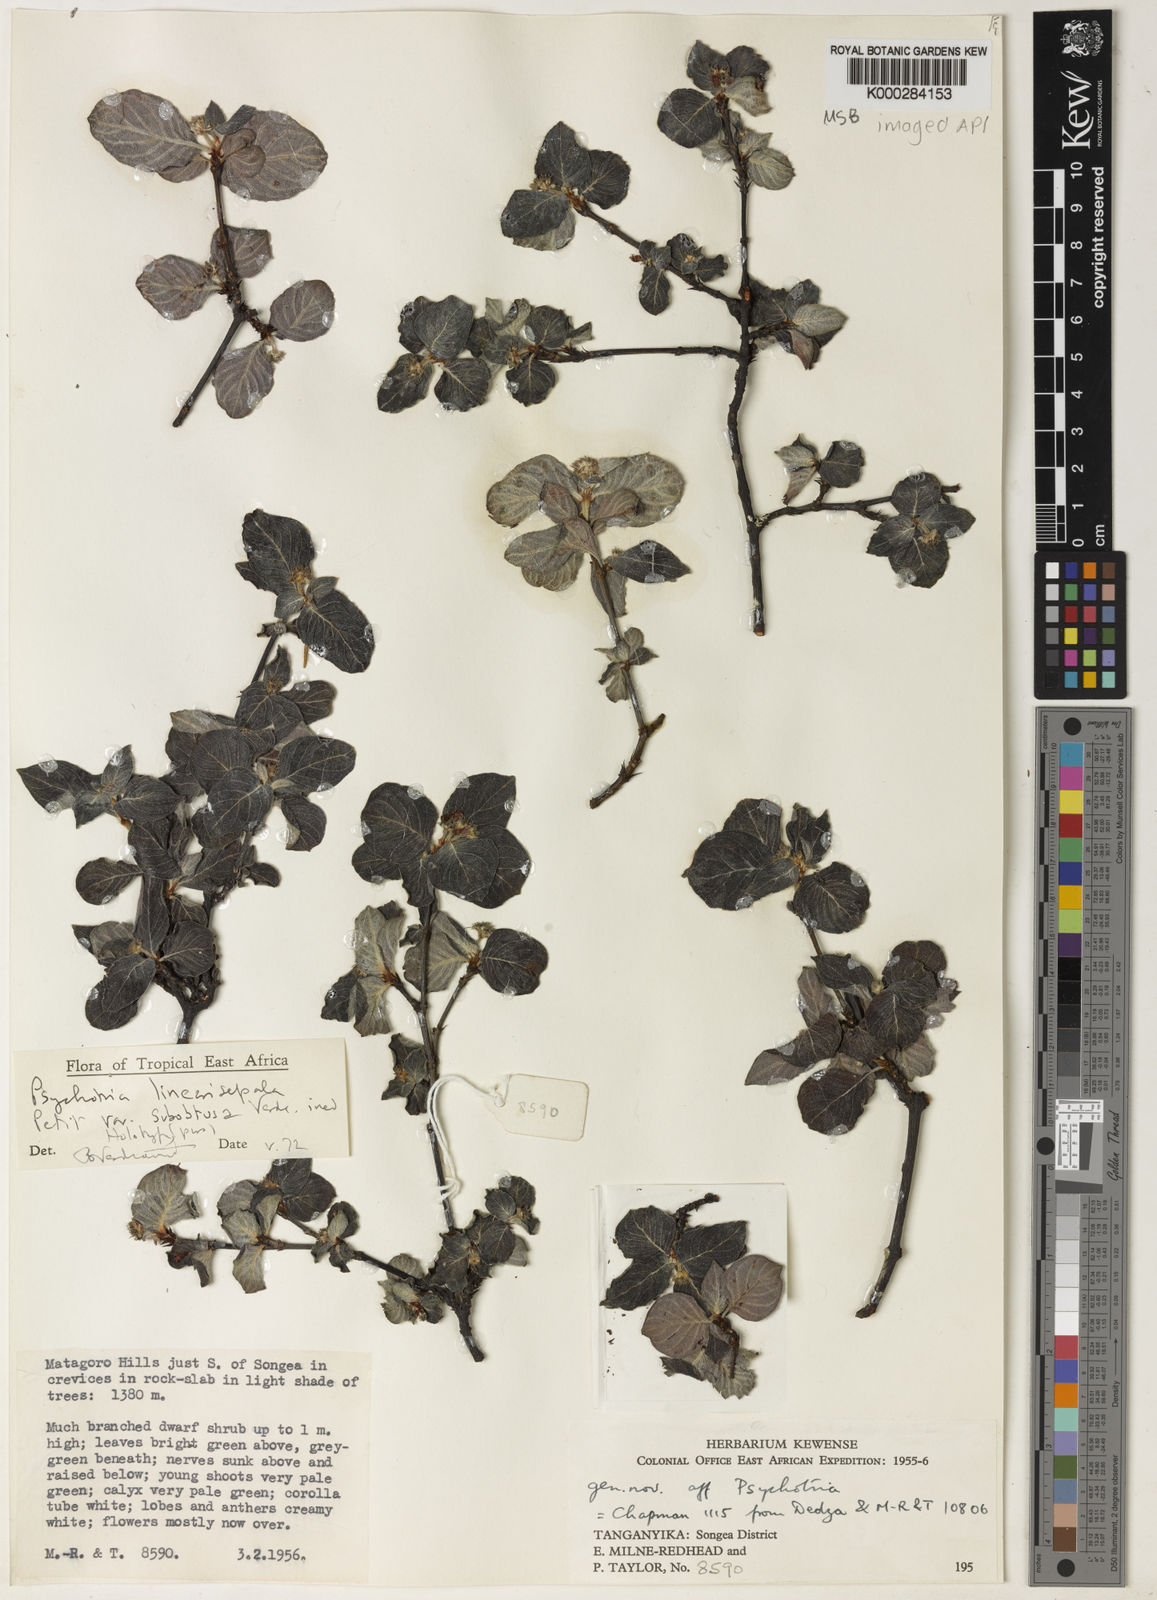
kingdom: Plantae
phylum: Tracheophyta
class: Magnoliopsida
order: Gentianales
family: Rubiaceae
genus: Psychotria
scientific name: Psychotria linearisepala
